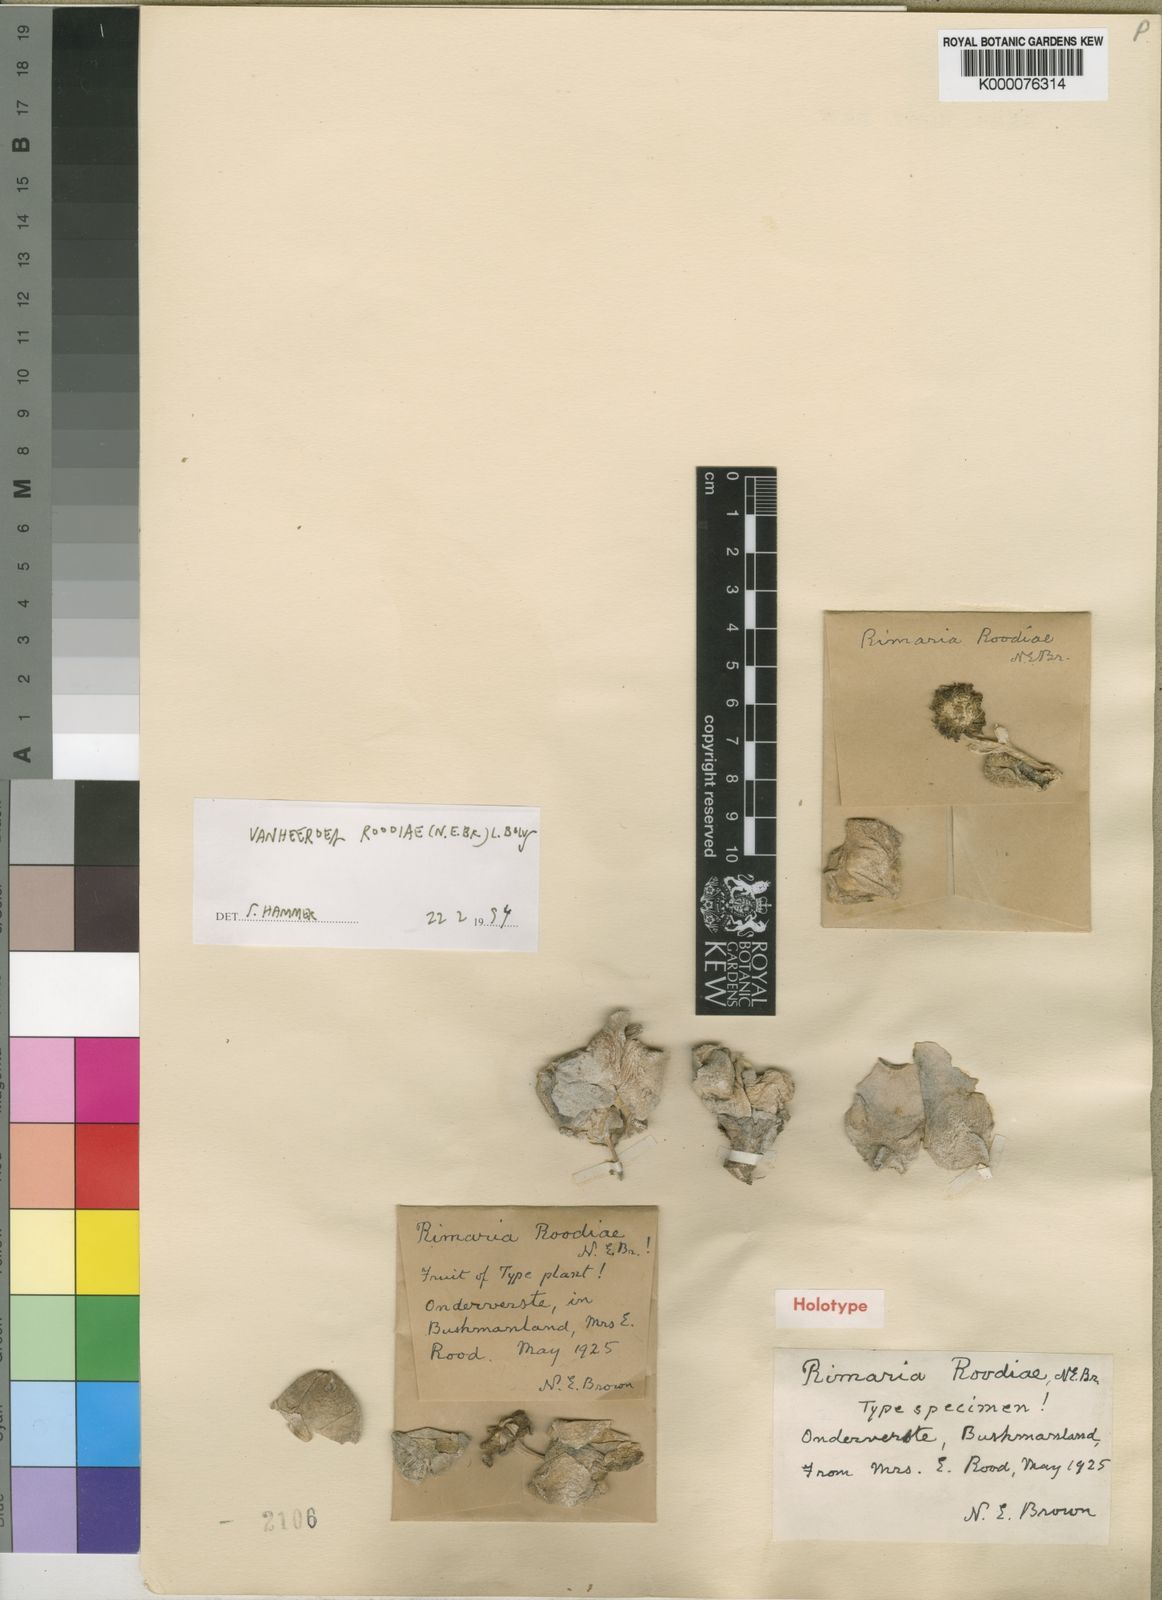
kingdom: Plantae
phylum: Tracheophyta
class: Magnoliopsida
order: Caryophyllales
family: Aizoaceae
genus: Vanheerdea
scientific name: Vanheerdea roodiae
